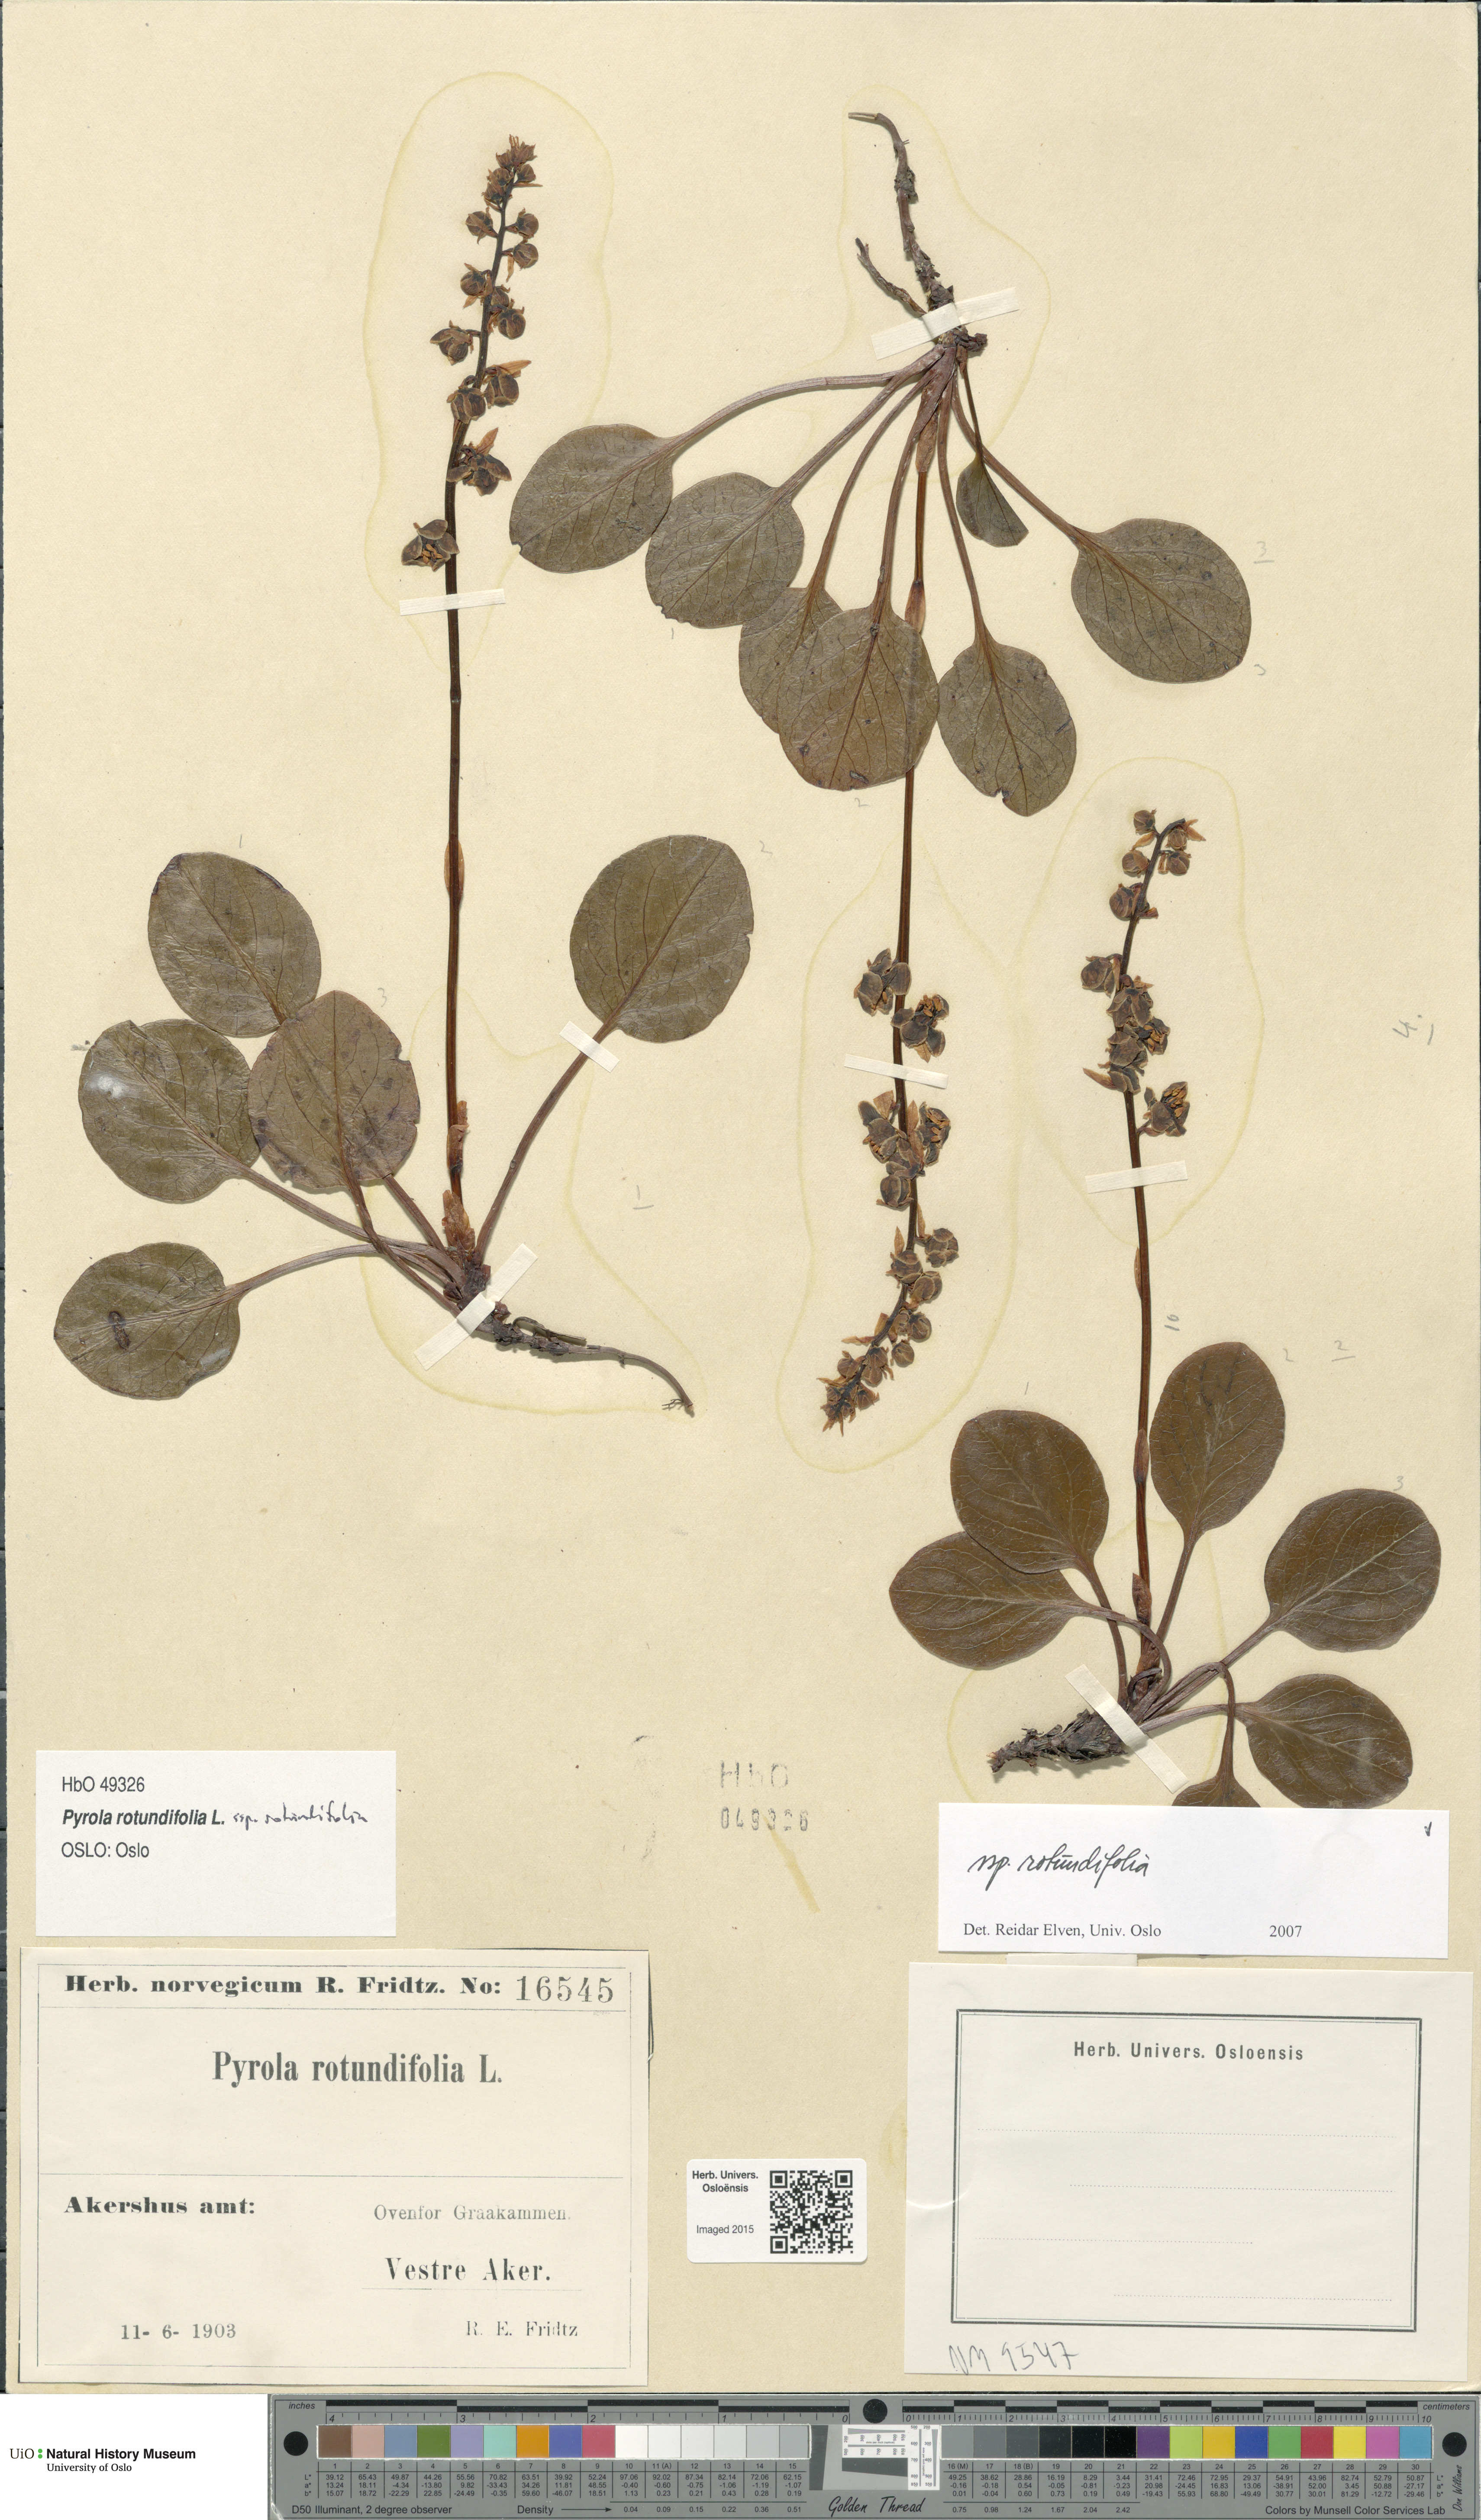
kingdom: Plantae
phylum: Tracheophyta
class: Magnoliopsida
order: Ericales
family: Ericaceae
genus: Pyrola
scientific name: Pyrola rotundifolia
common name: Round-leaved wintergreen
